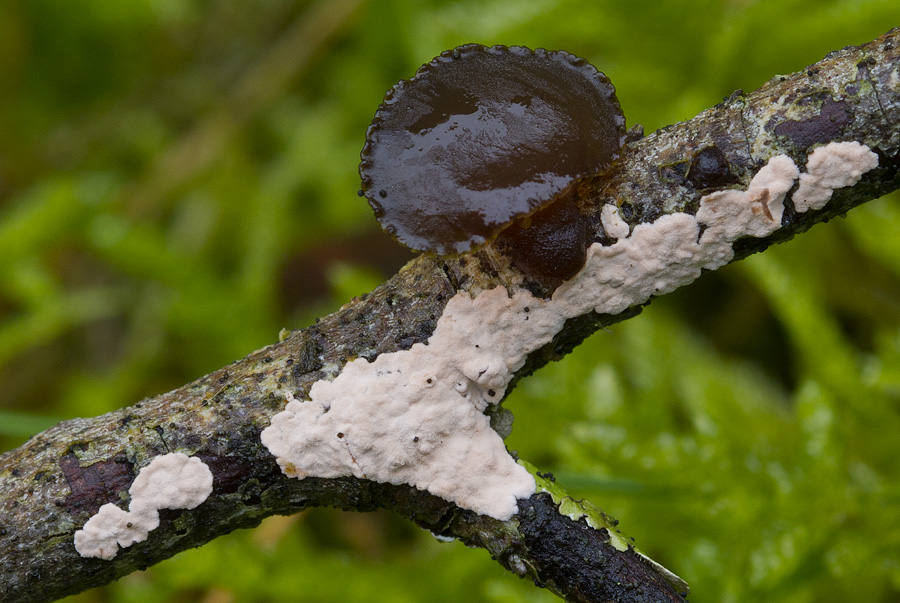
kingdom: Fungi
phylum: Basidiomycota
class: Agaricomycetes
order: Corticiales
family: Corticiaceae
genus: Corticium
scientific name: Corticium roseum
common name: rosa barkskind
